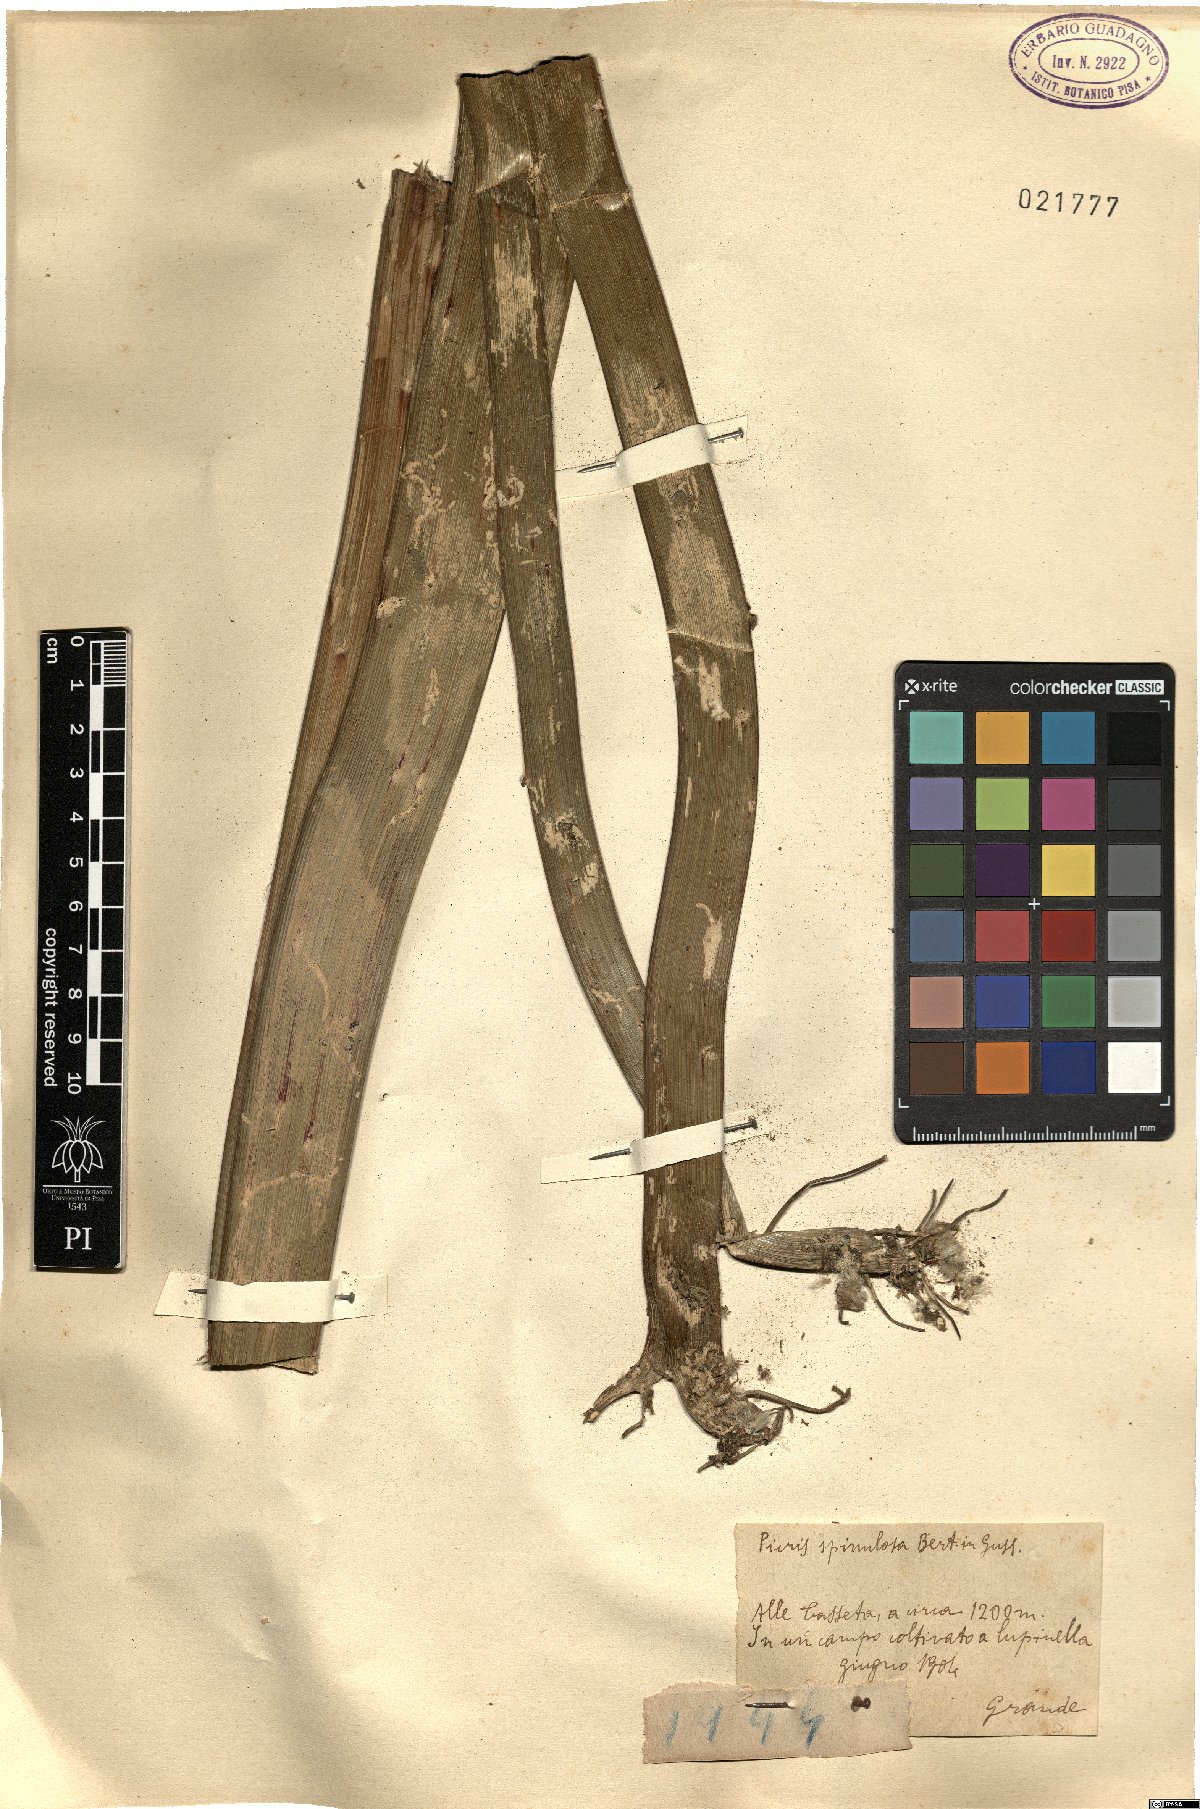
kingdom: Plantae
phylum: Tracheophyta
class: Magnoliopsida
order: Asterales
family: Asteraceae
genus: Picris
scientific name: Picris hieracioides
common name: Hawkweed oxtongue
